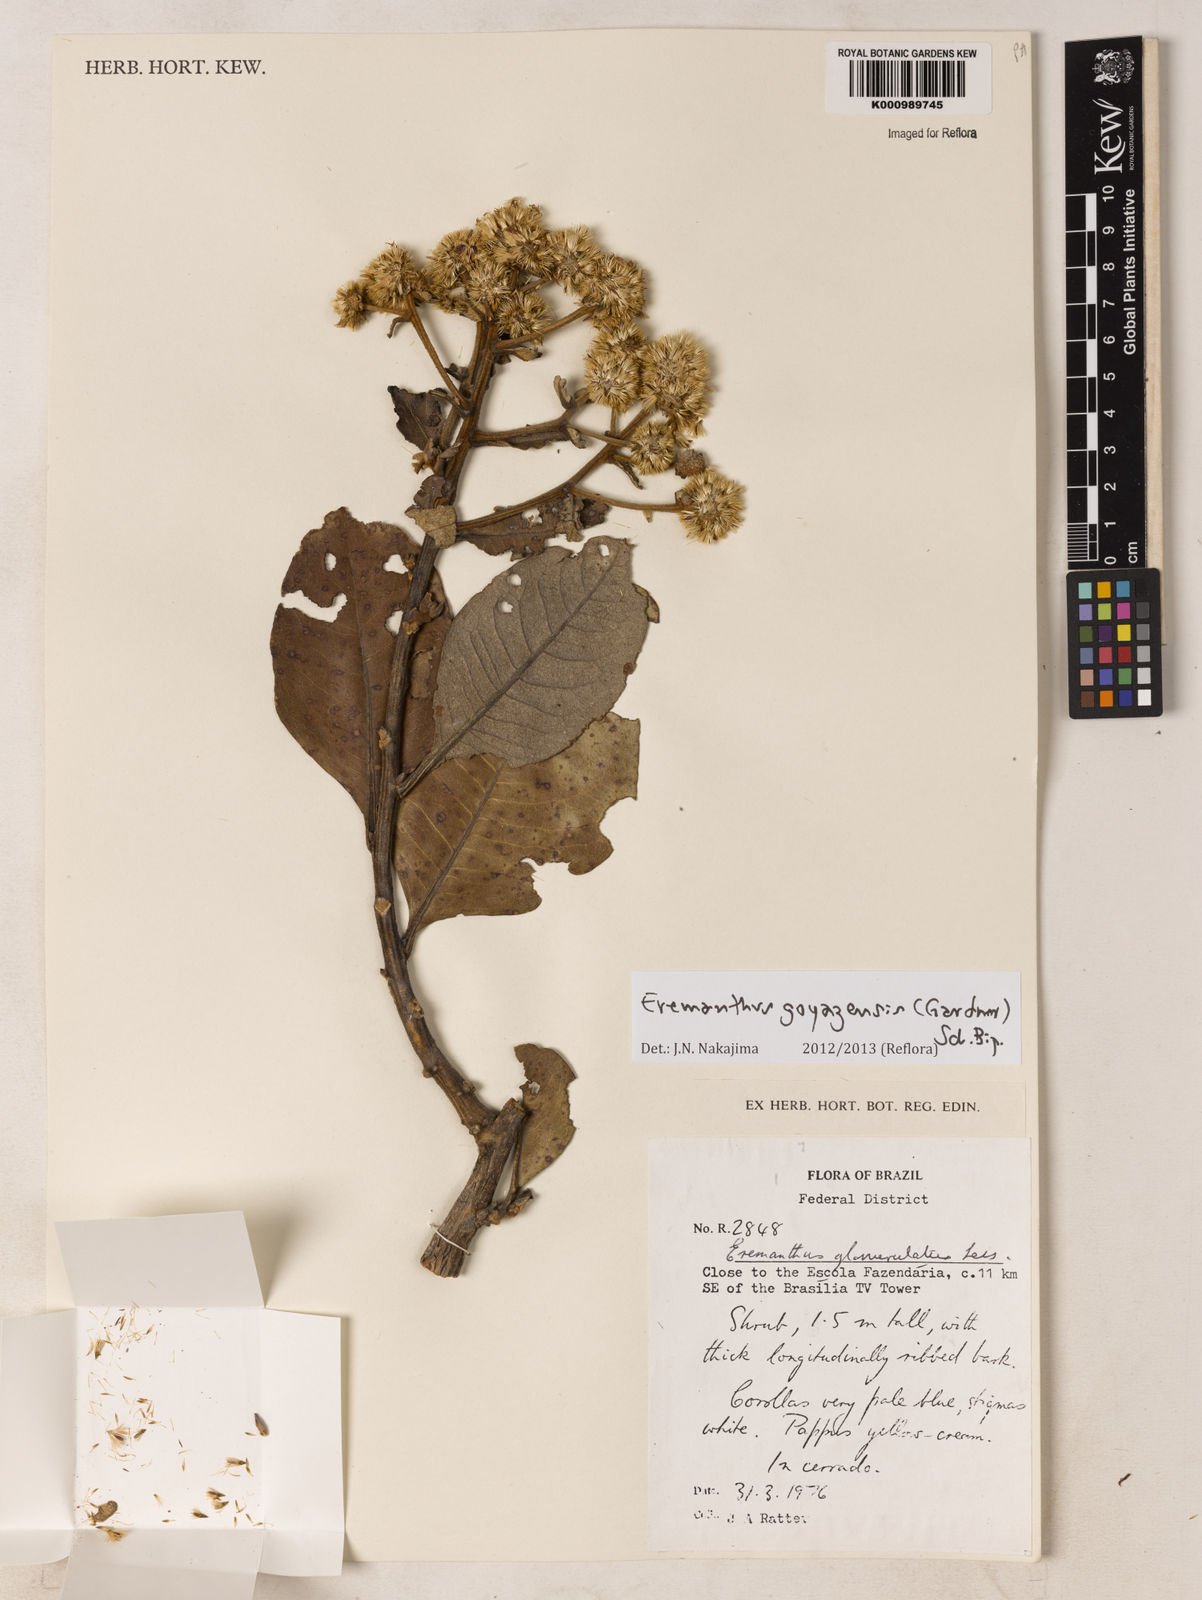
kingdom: Plantae
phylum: Tracheophyta
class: Magnoliopsida
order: Asterales
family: Asteraceae
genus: Eremanthus
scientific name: Eremanthus goyazensis
